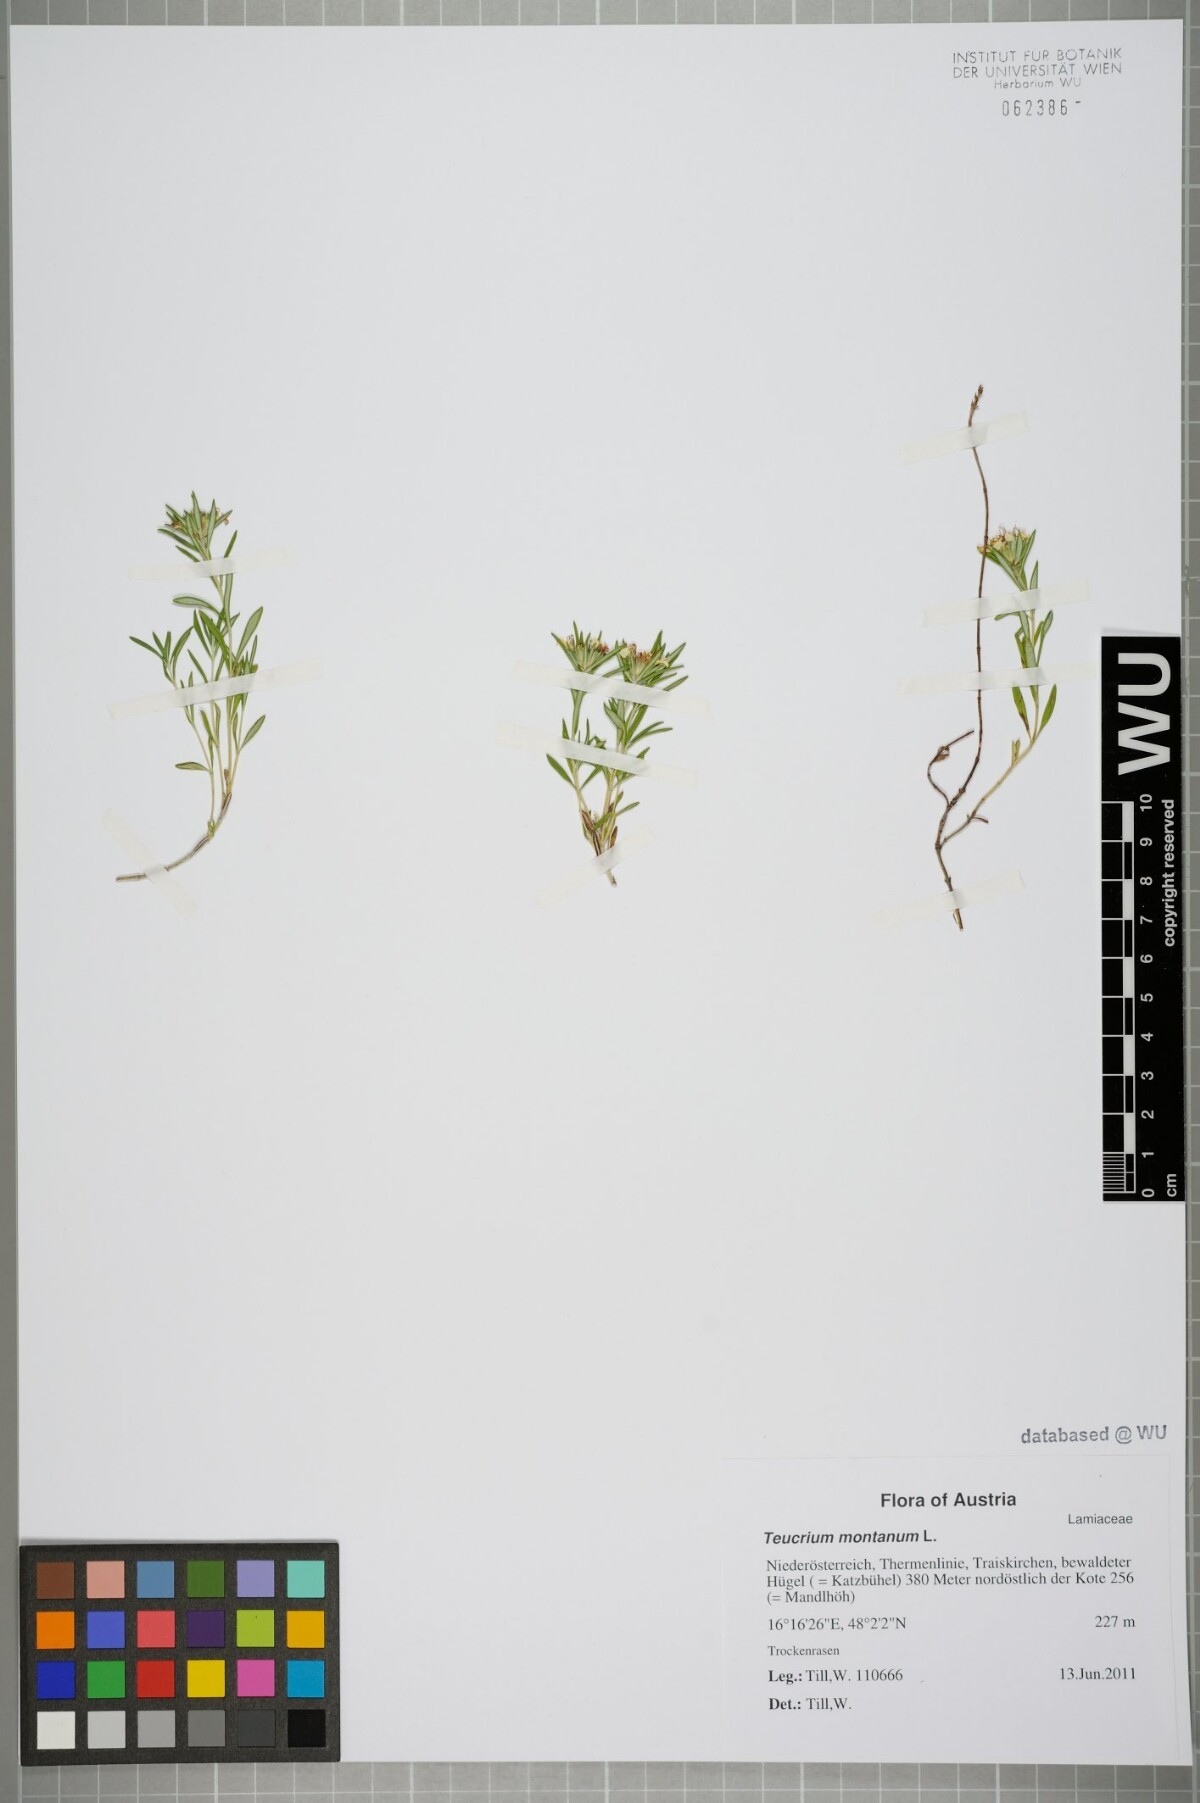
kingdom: Plantae
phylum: Tracheophyta
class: Magnoliopsida
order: Lamiales
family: Lamiaceae
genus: Teucrium
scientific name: Teucrium montanum
